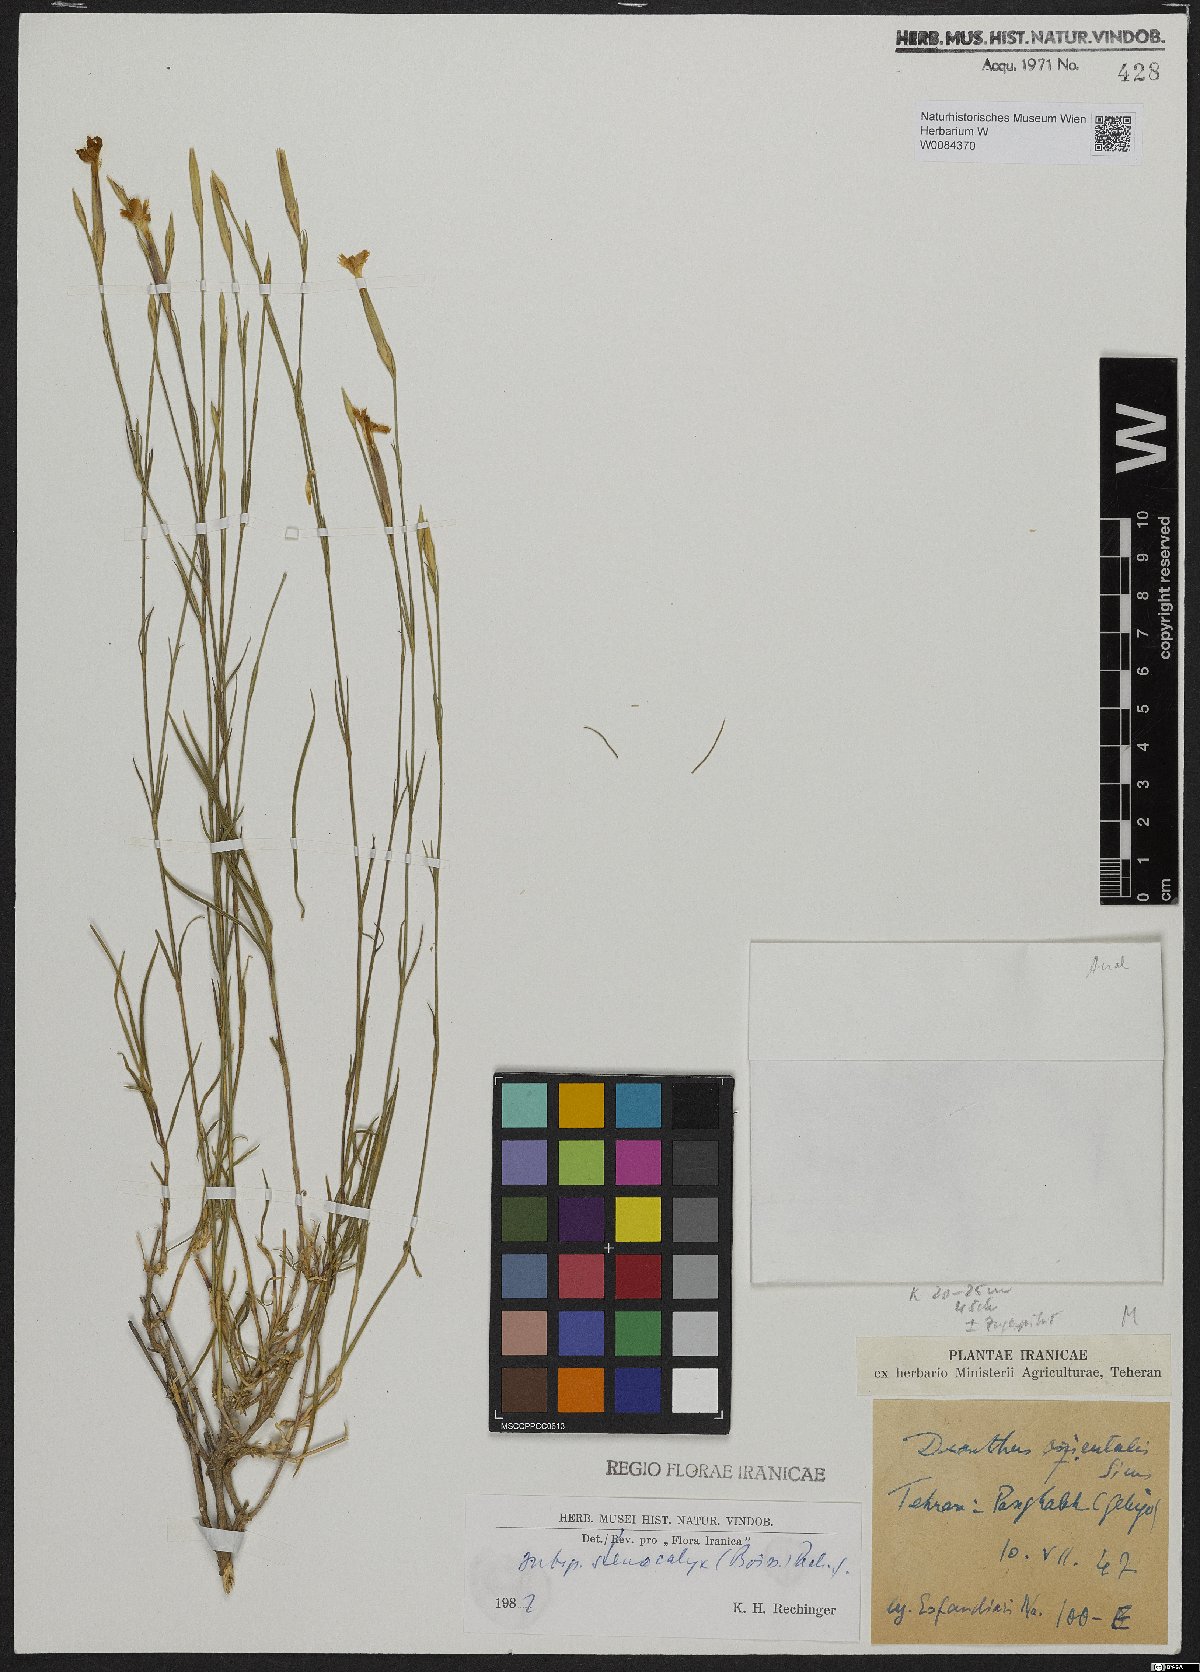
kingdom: Plantae
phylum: Tracheophyta
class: Magnoliopsida
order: Caryophyllales
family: Caryophyllaceae
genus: Dianthus
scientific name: Dianthus orientalis
